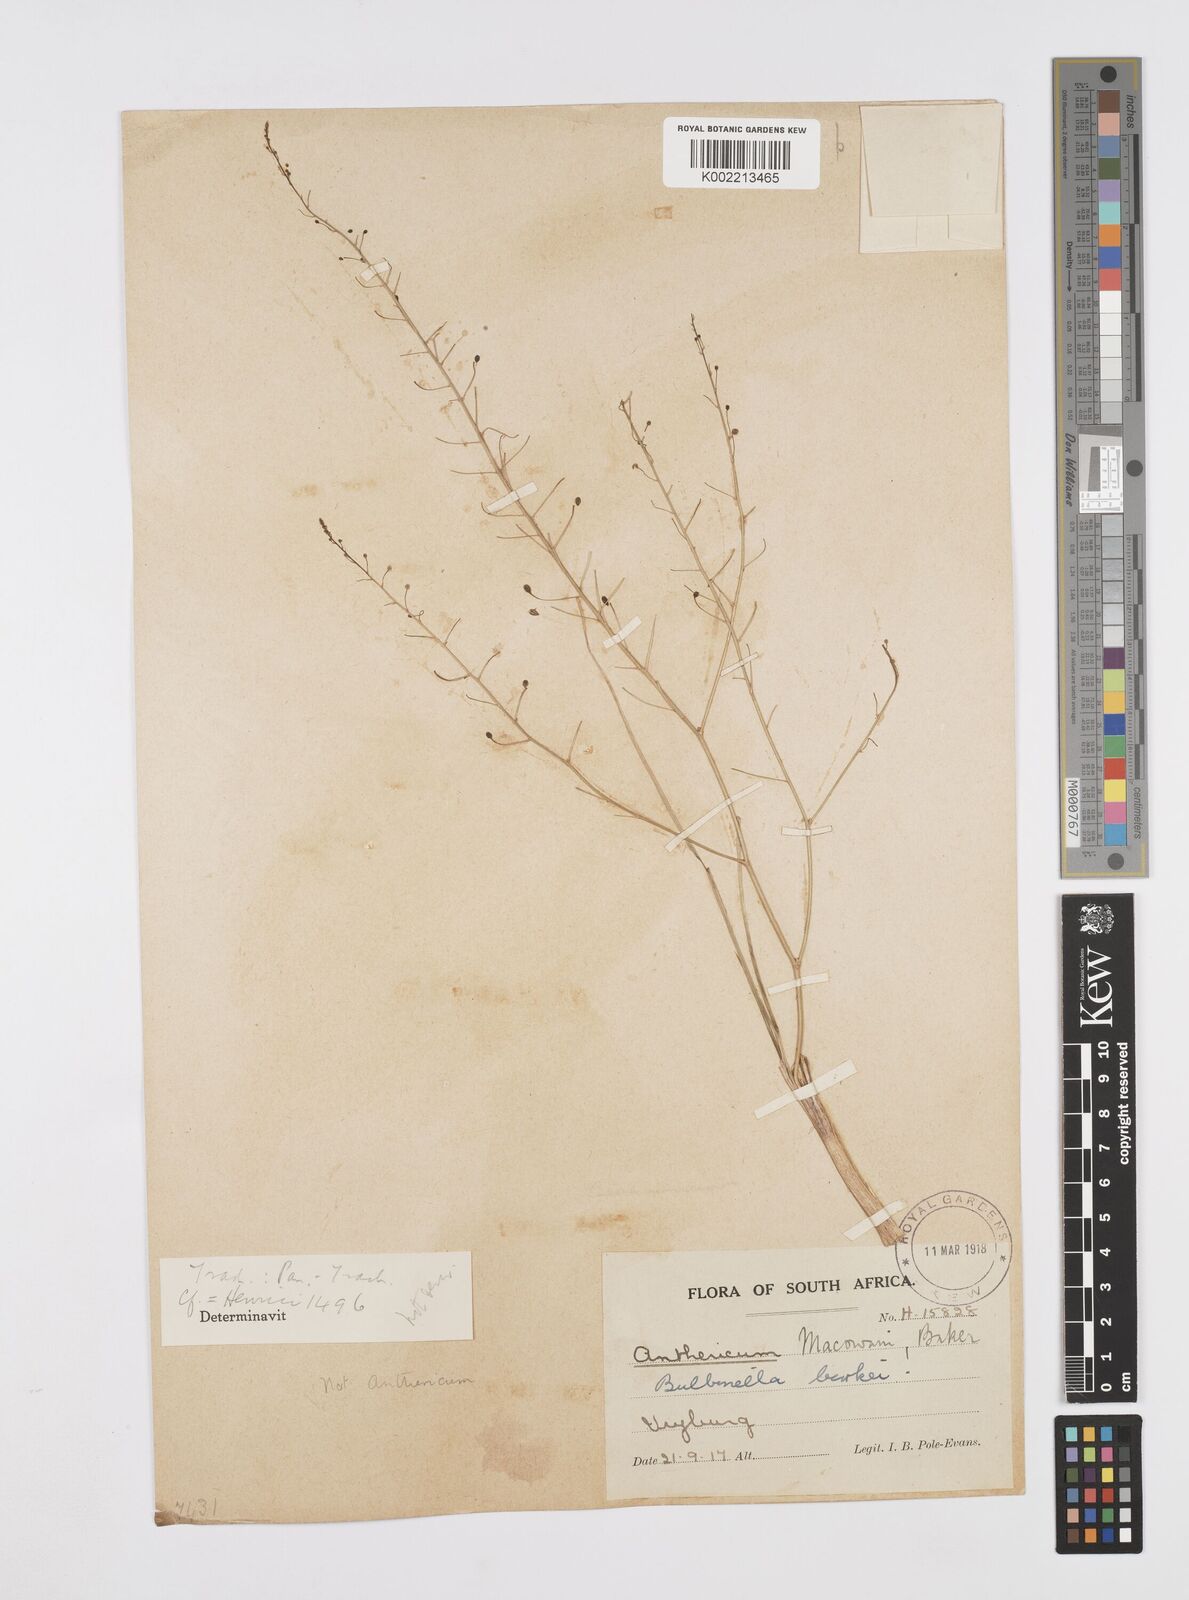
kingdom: Plantae
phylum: Tracheophyta
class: Liliopsida
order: Asparagales
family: Asphodelaceae
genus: Trachyandra
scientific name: Trachyandra burkei
